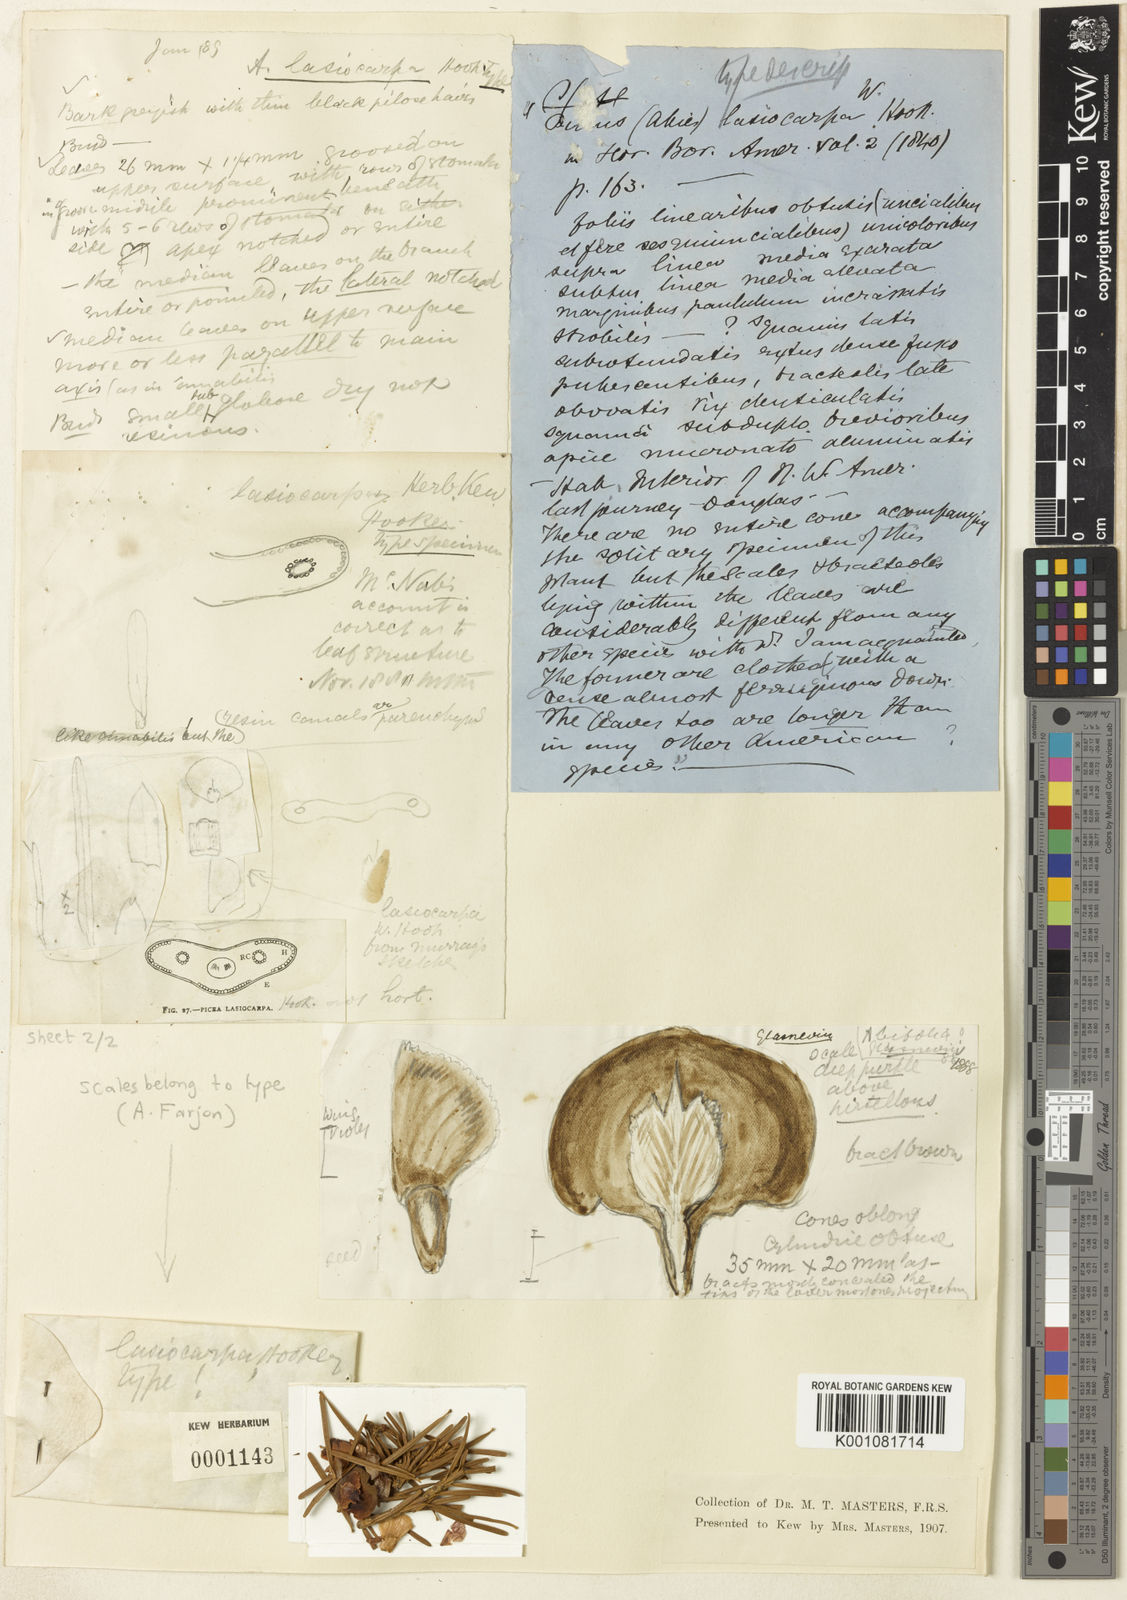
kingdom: Plantae
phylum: Tracheophyta
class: Pinopsida
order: Pinales
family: Pinaceae
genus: Abies
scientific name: Abies lasiocarpa
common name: Subalpine fir
